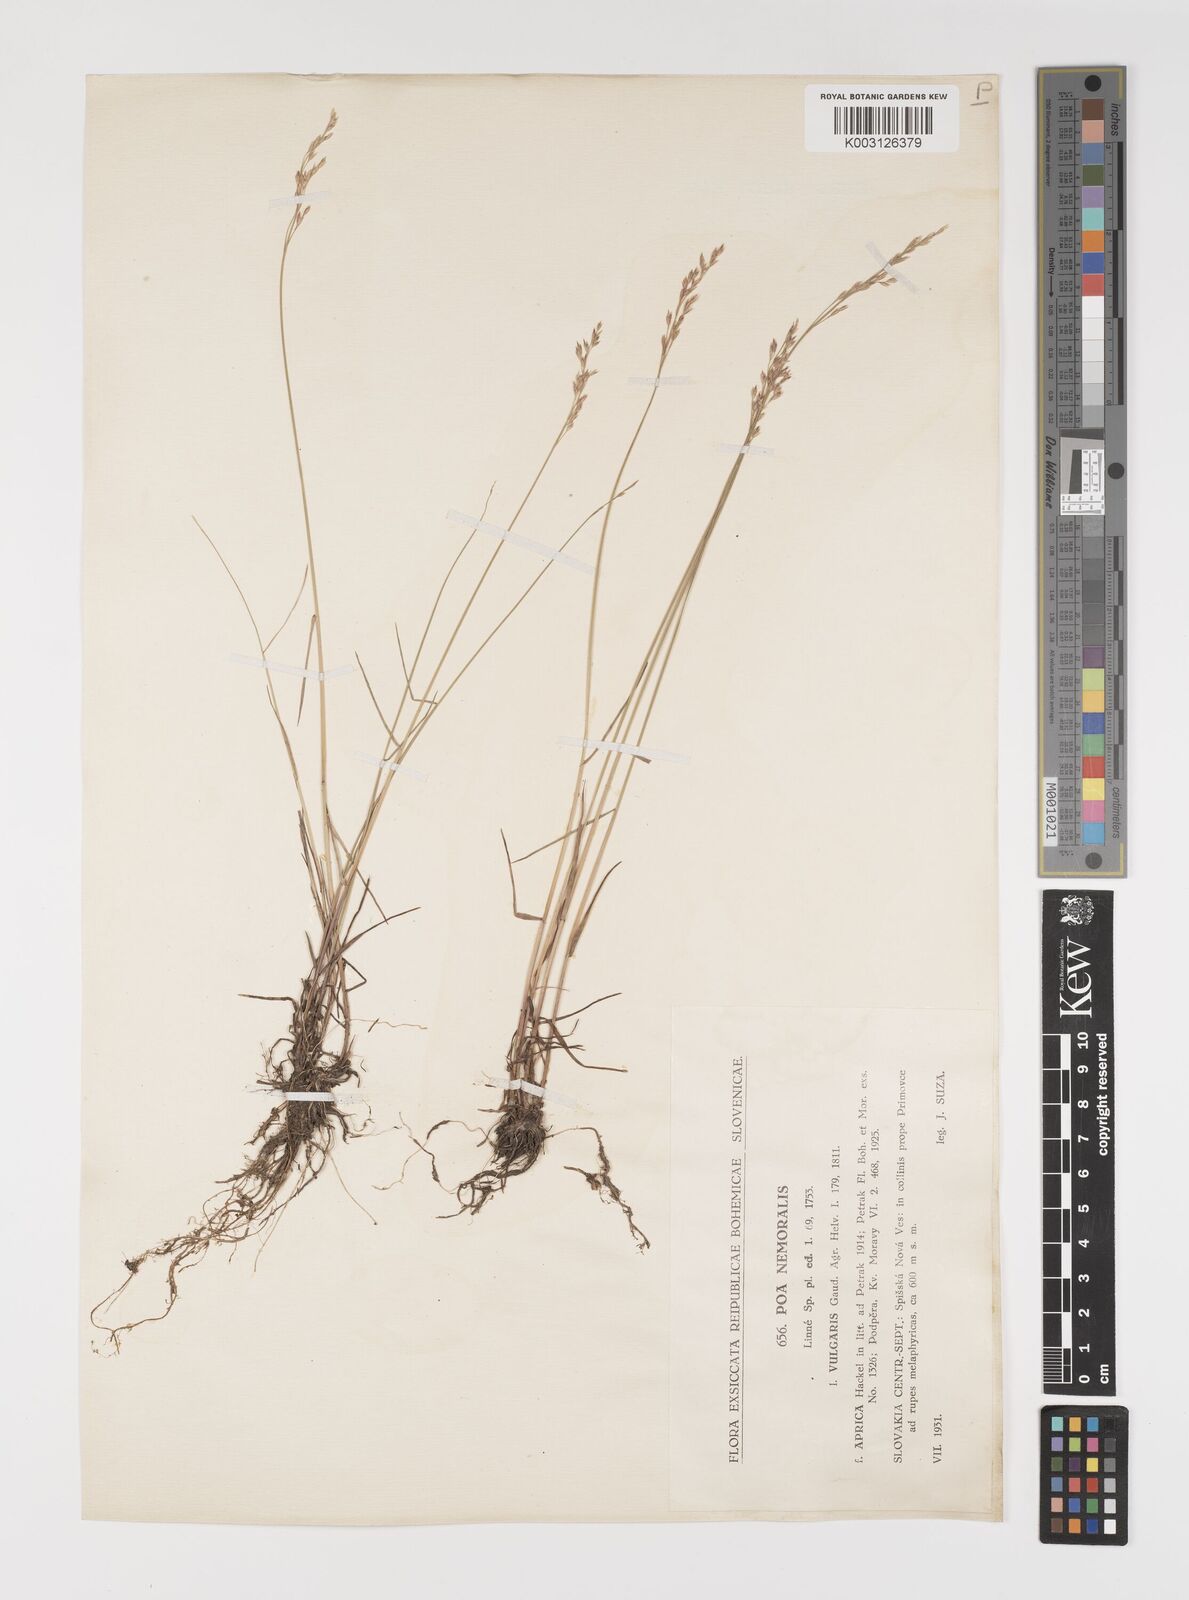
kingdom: Plantae
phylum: Tracheophyta
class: Liliopsida
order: Poales
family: Poaceae
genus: Poa
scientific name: Poa glauca
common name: Glaucous bluegrass
